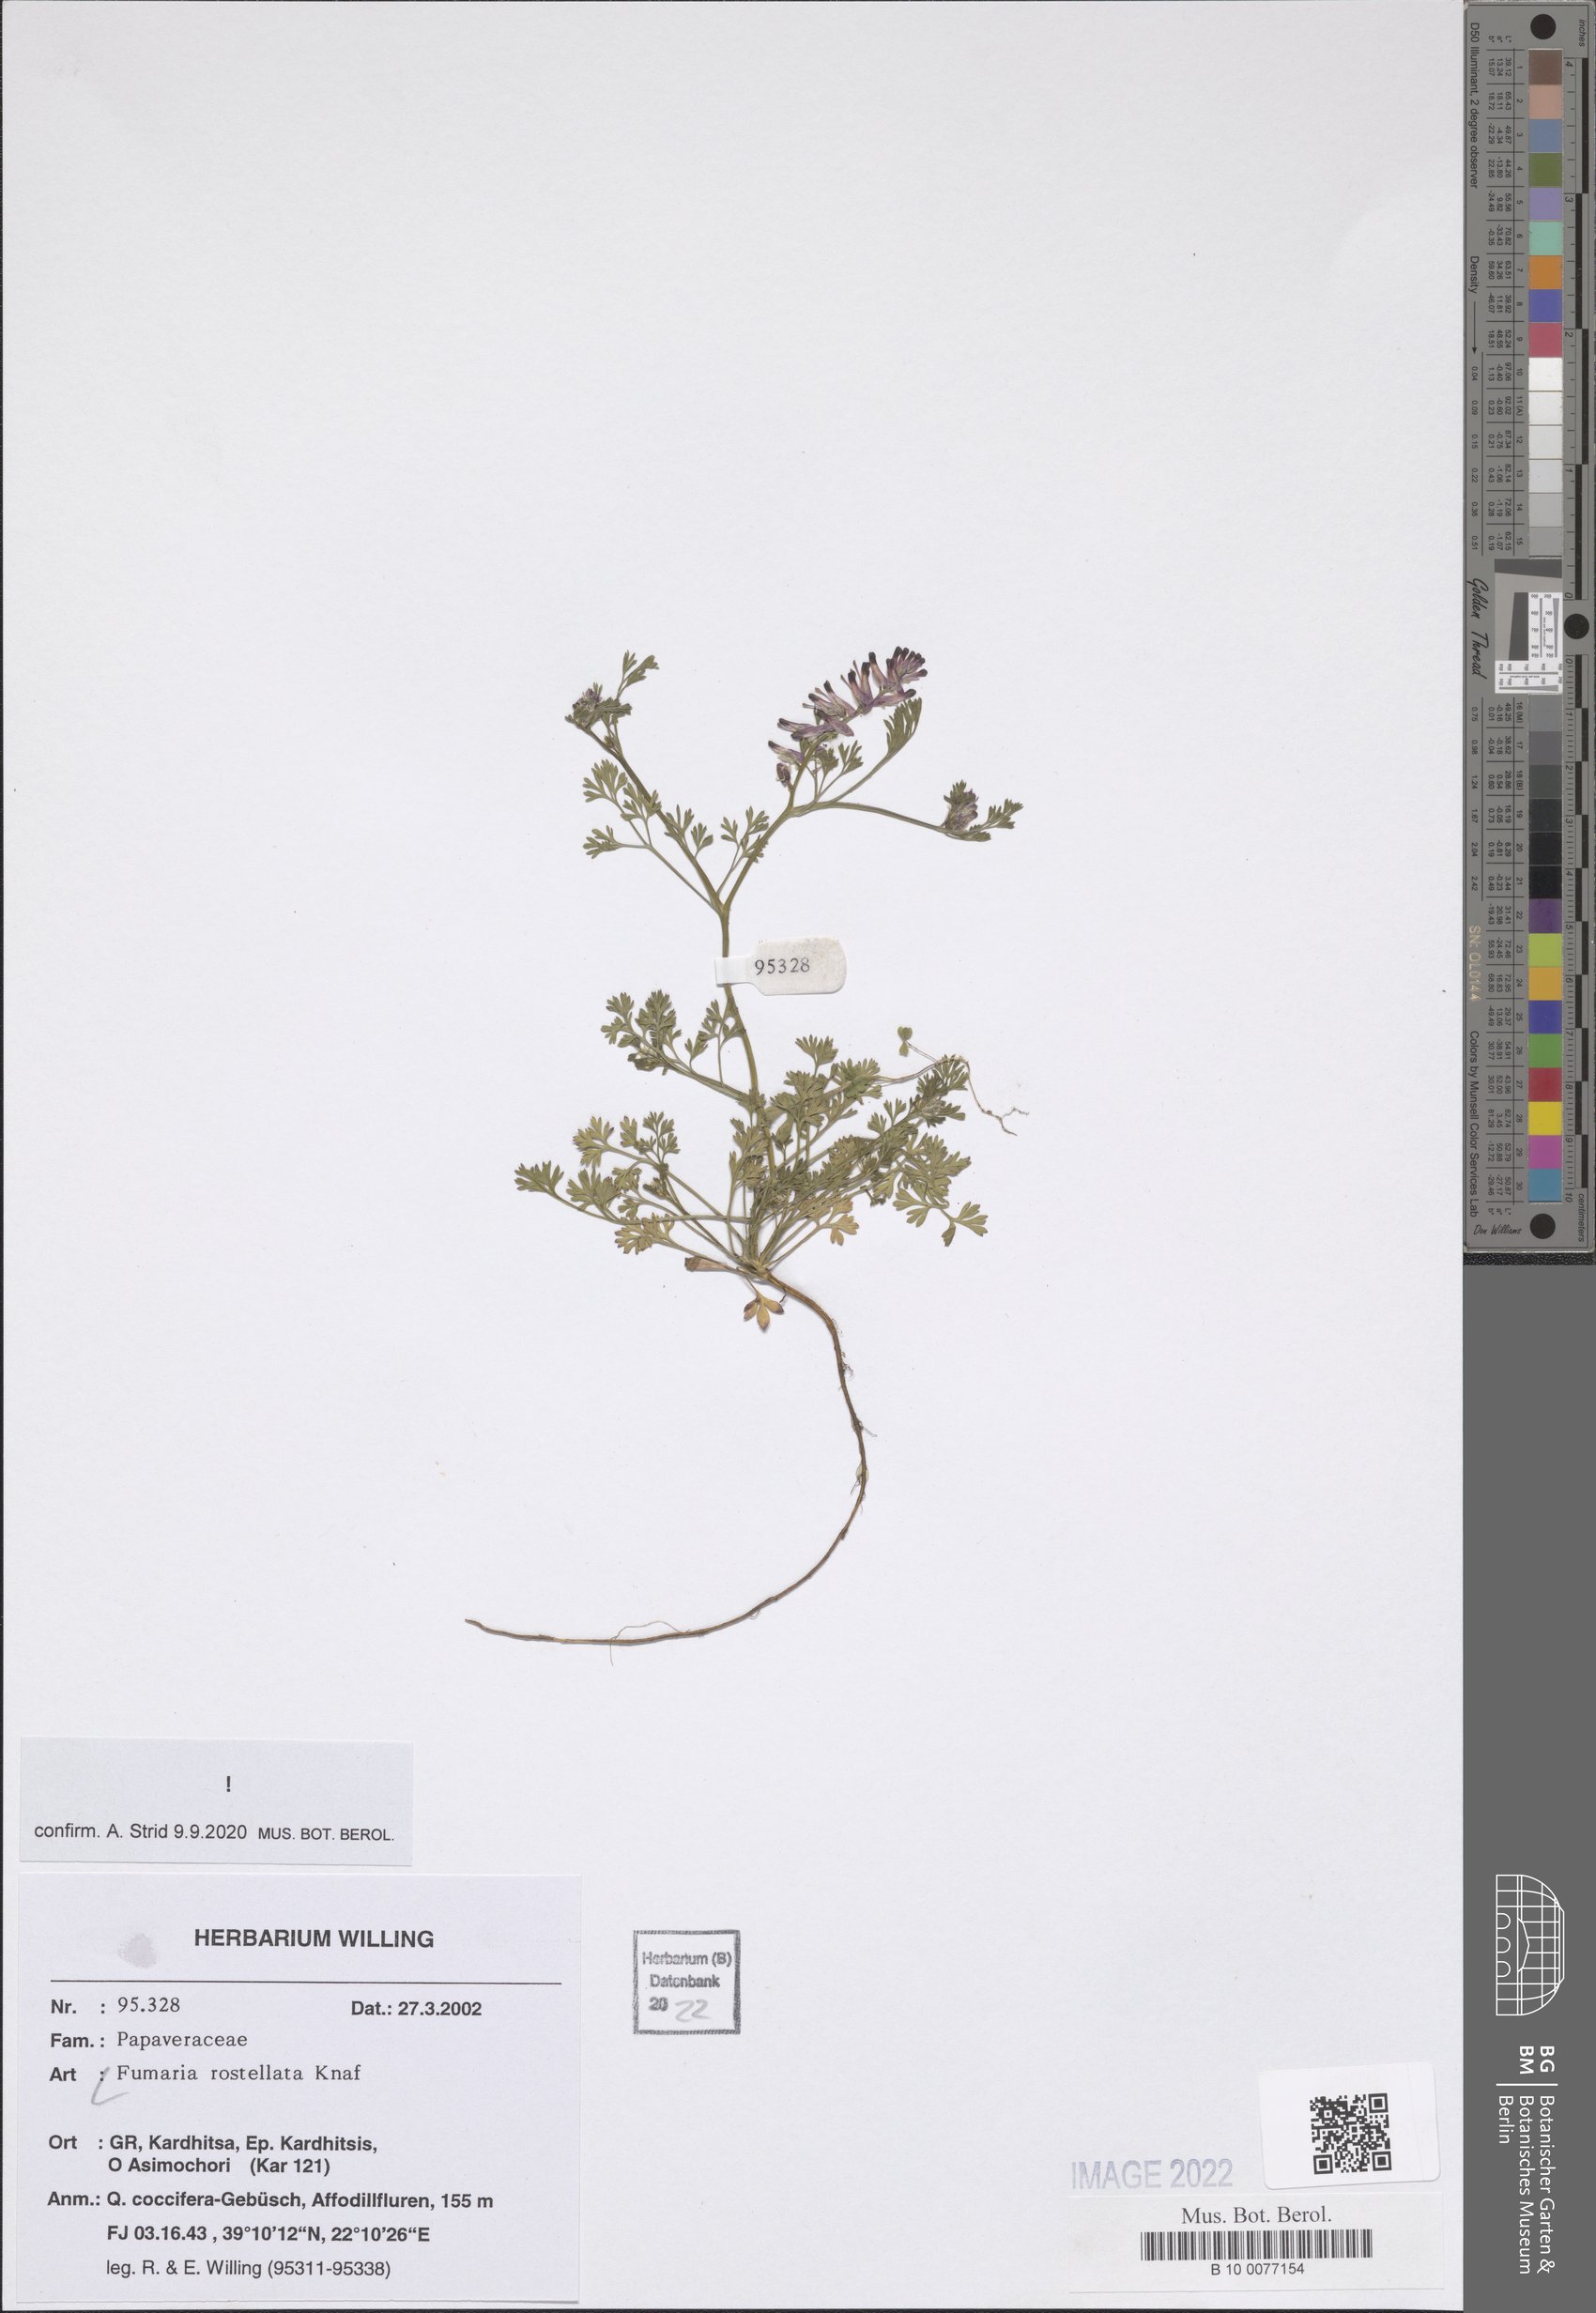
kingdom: Plantae
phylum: Tracheophyta
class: Magnoliopsida
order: Ranunculales
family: Papaveraceae
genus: Fumaria
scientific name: Fumaria rostellata
